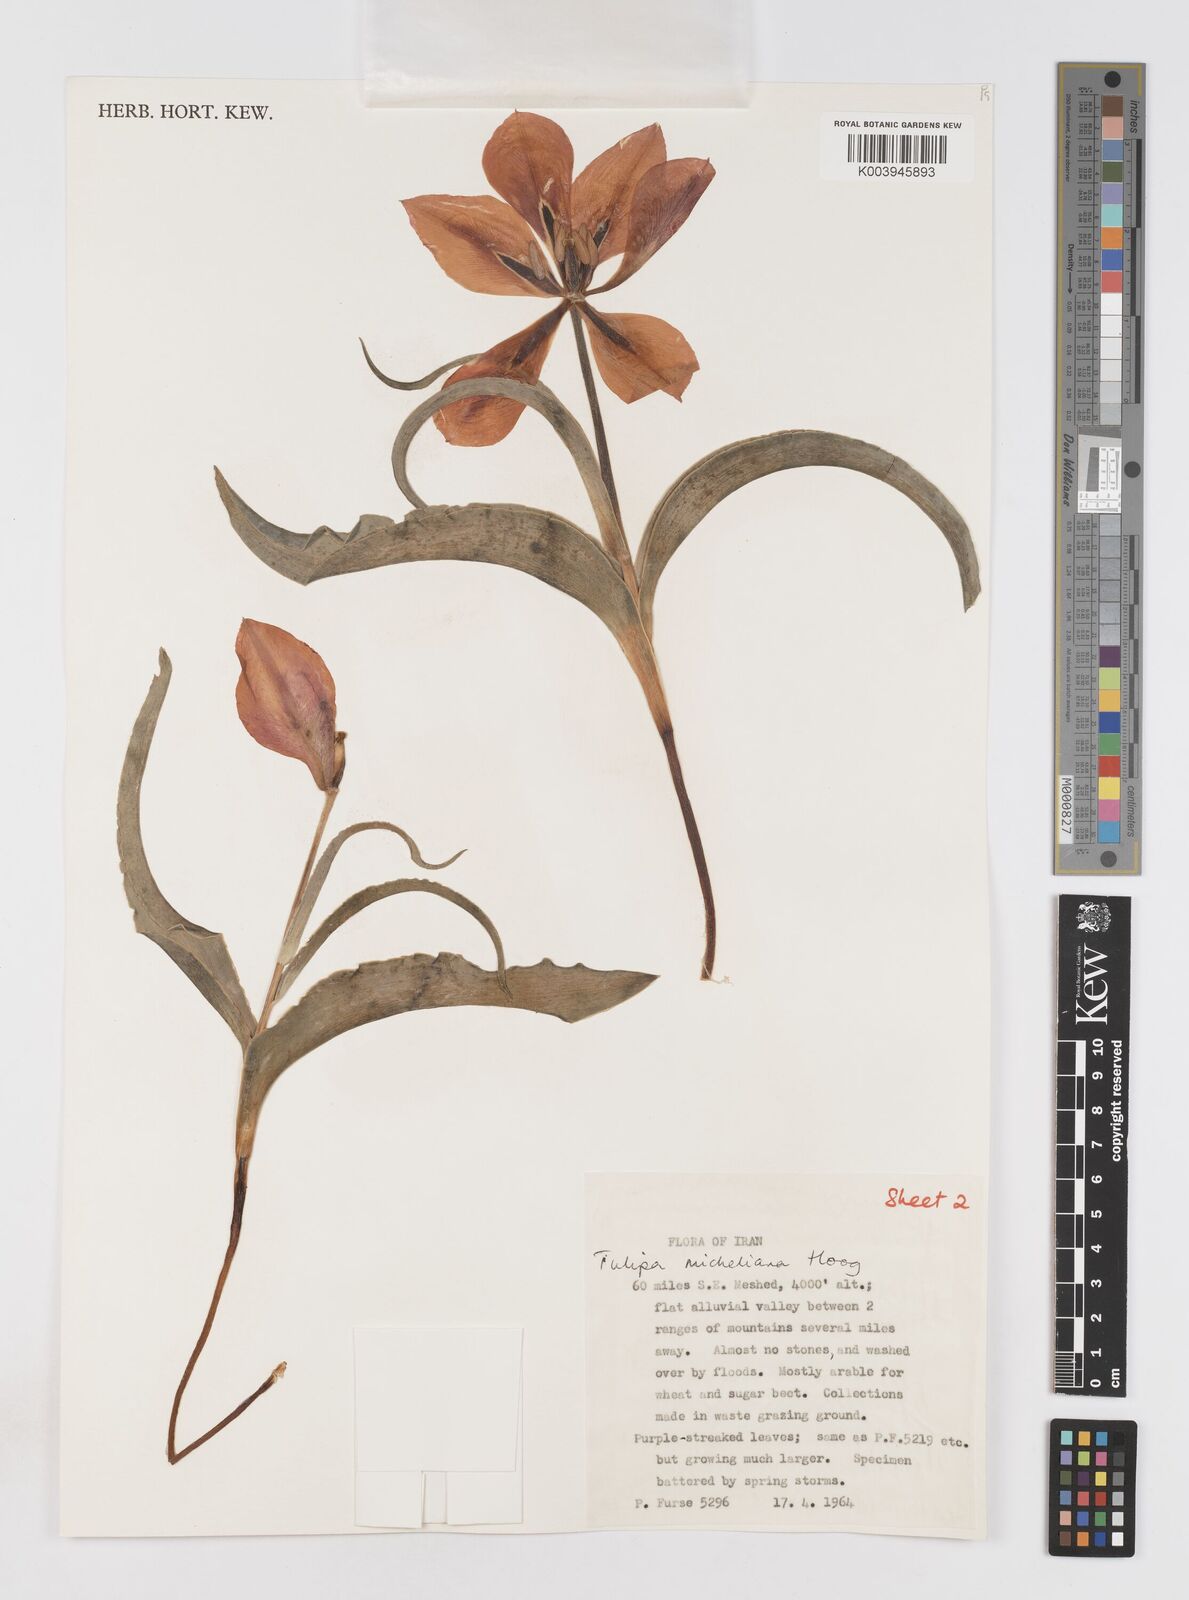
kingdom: Plantae
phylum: Tracheophyta
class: Liliopsida
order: Liliales
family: Liliaceae
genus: Tulipa
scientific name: Tulipa undulatifolia
